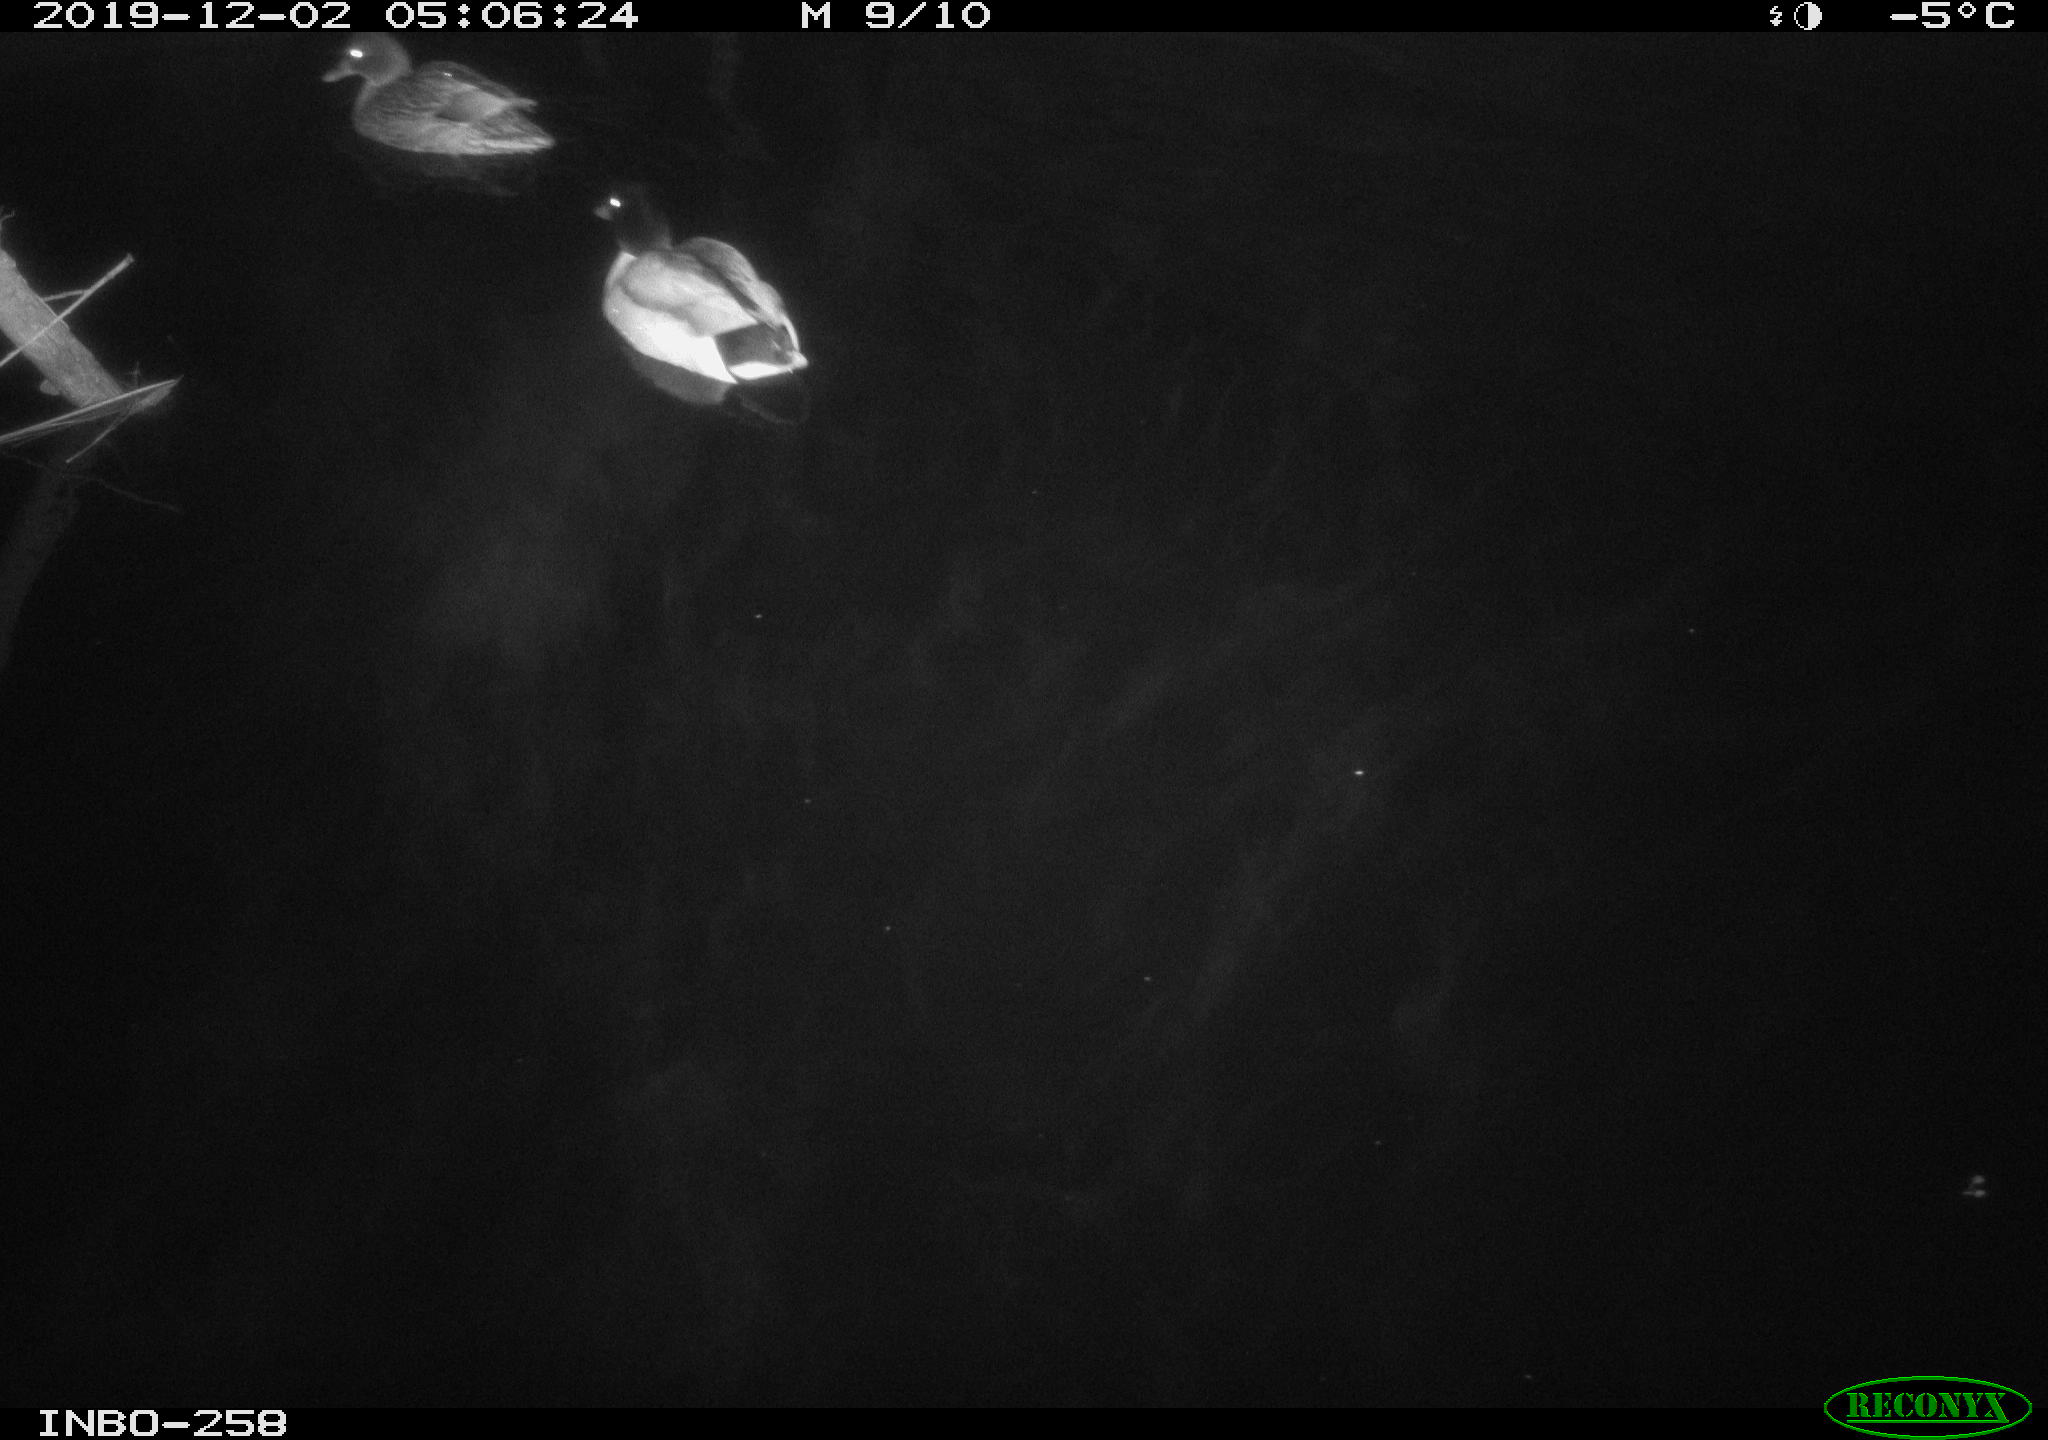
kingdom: Animalia
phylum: Chordata
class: Aves
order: Anseriformes
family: Anatidae
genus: Anas
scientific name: Anas platyrhynchos
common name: Mallard
